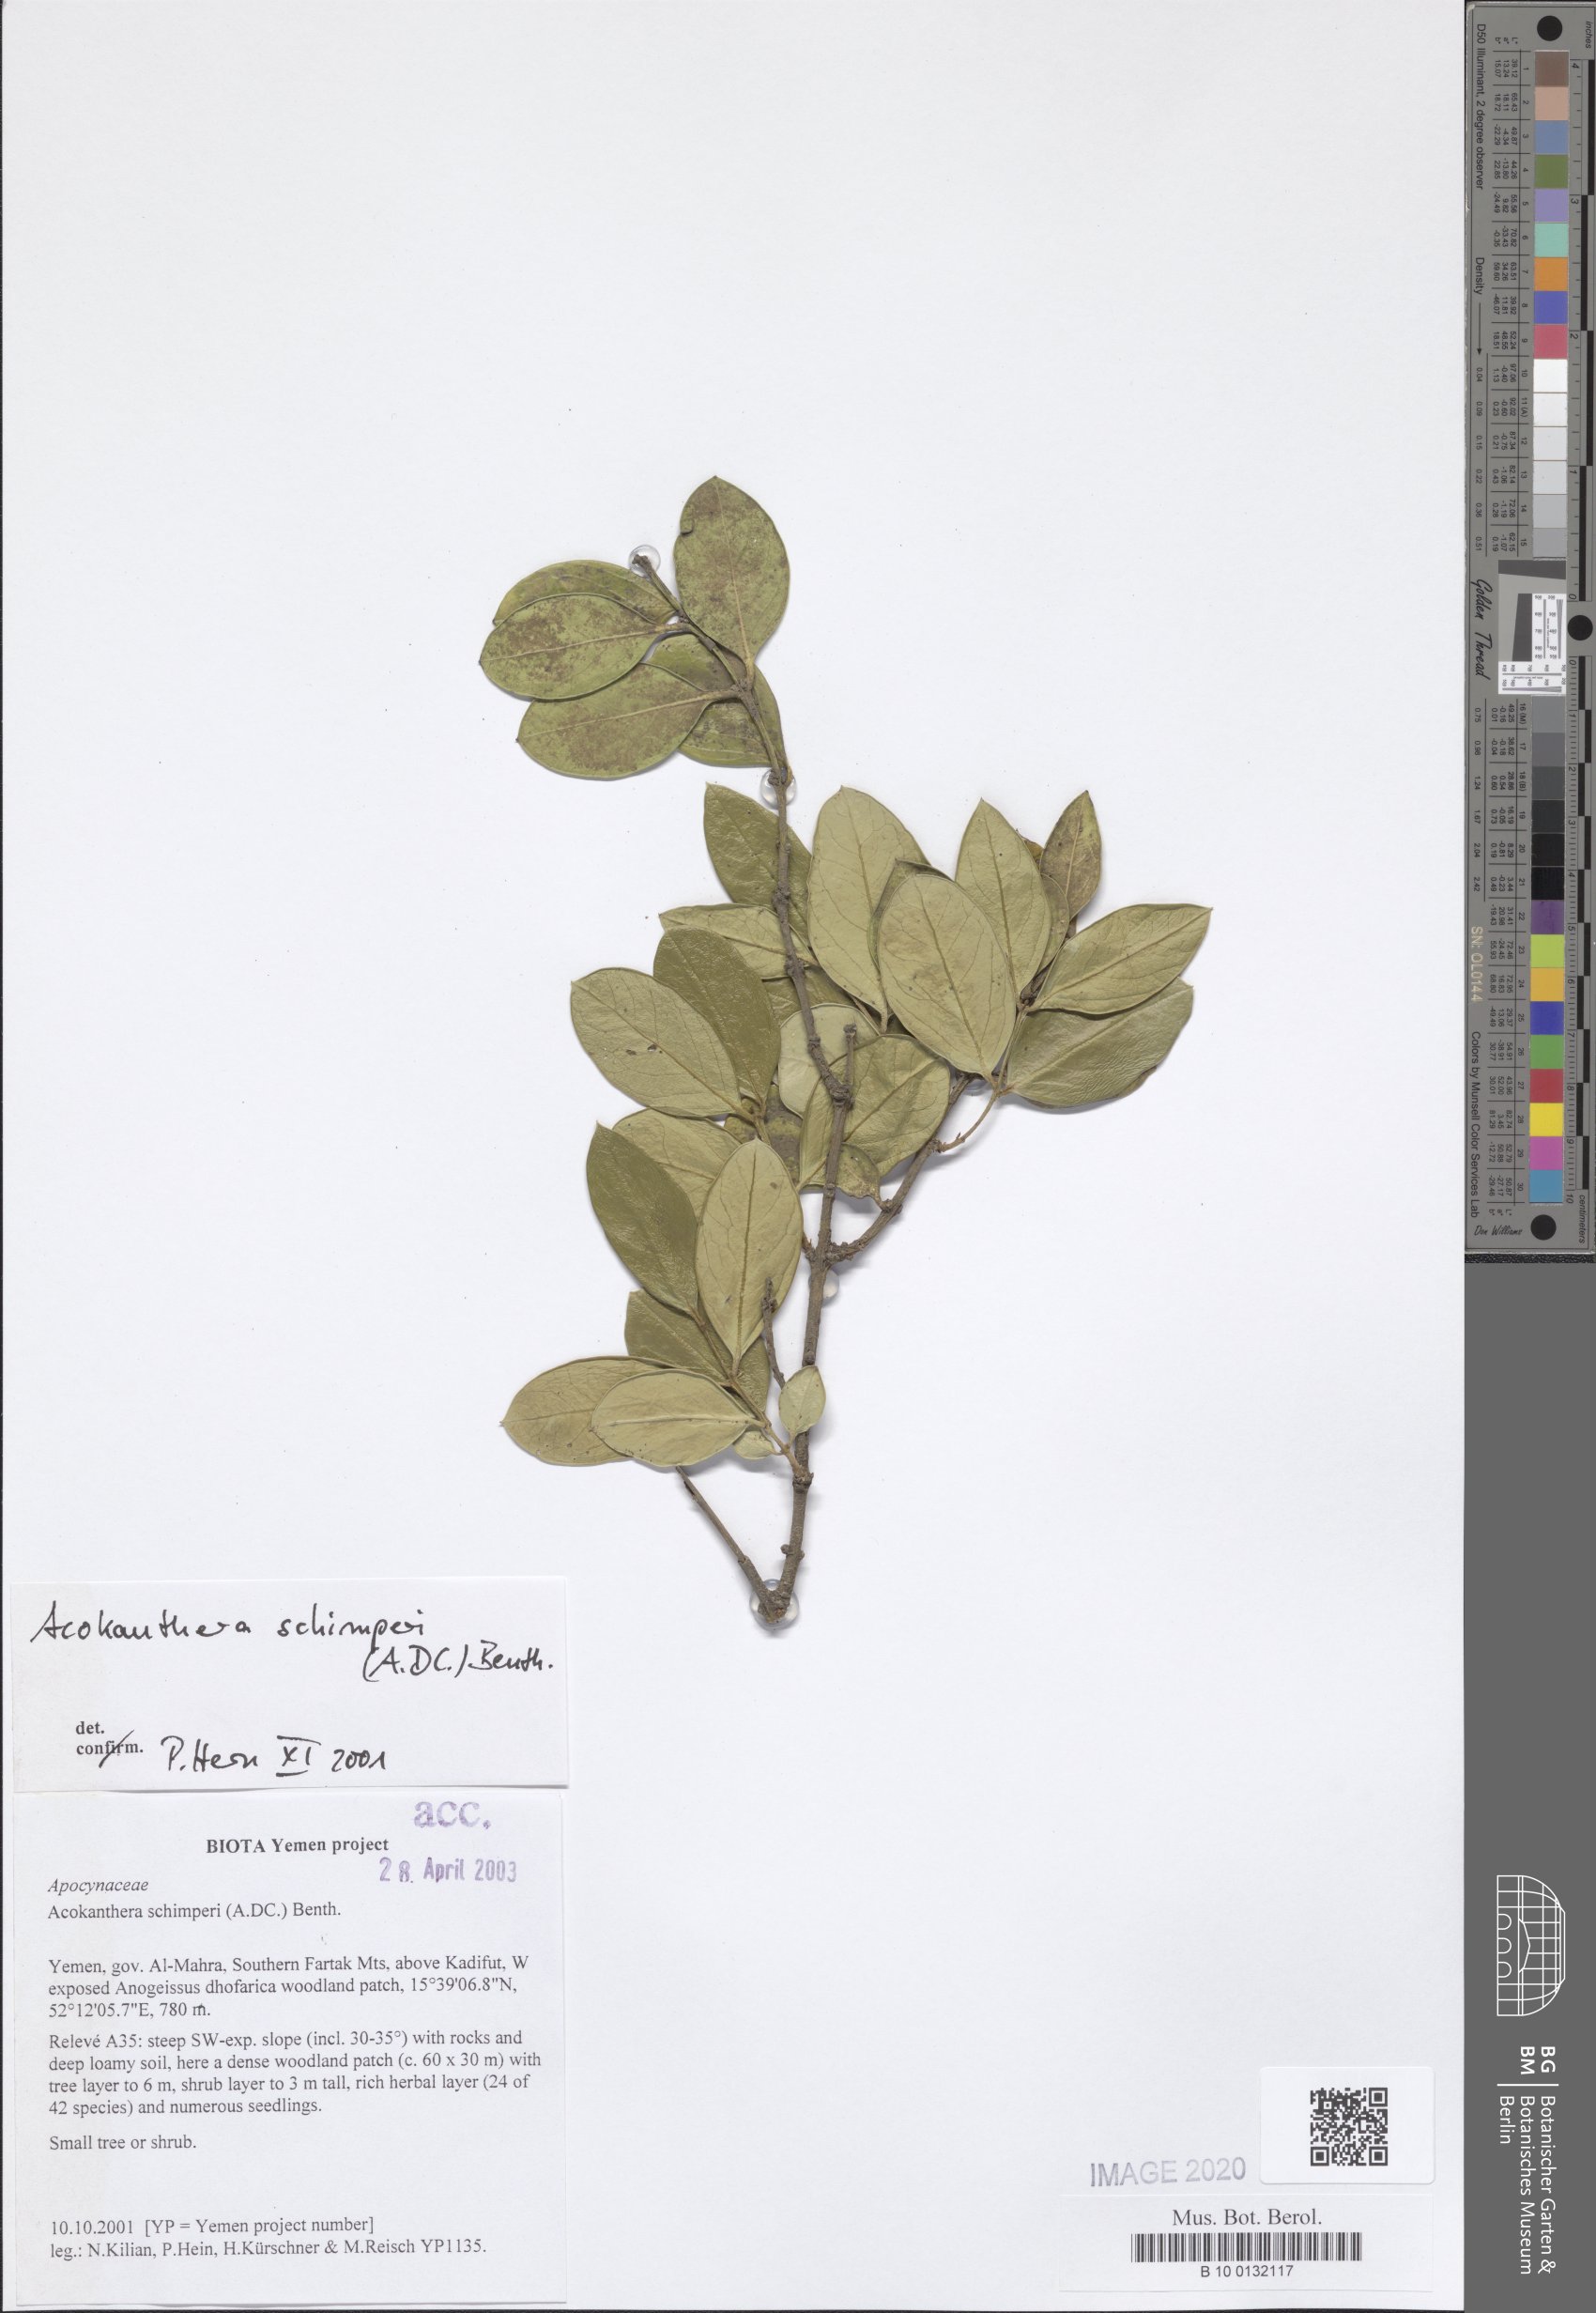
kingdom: Plantae
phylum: Tracheophyta
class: Magnoliopsida
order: Gentianales
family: Apocynaceae
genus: Acokanthera
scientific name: Acokanthera schimperi
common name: Arrow-poison-tree
